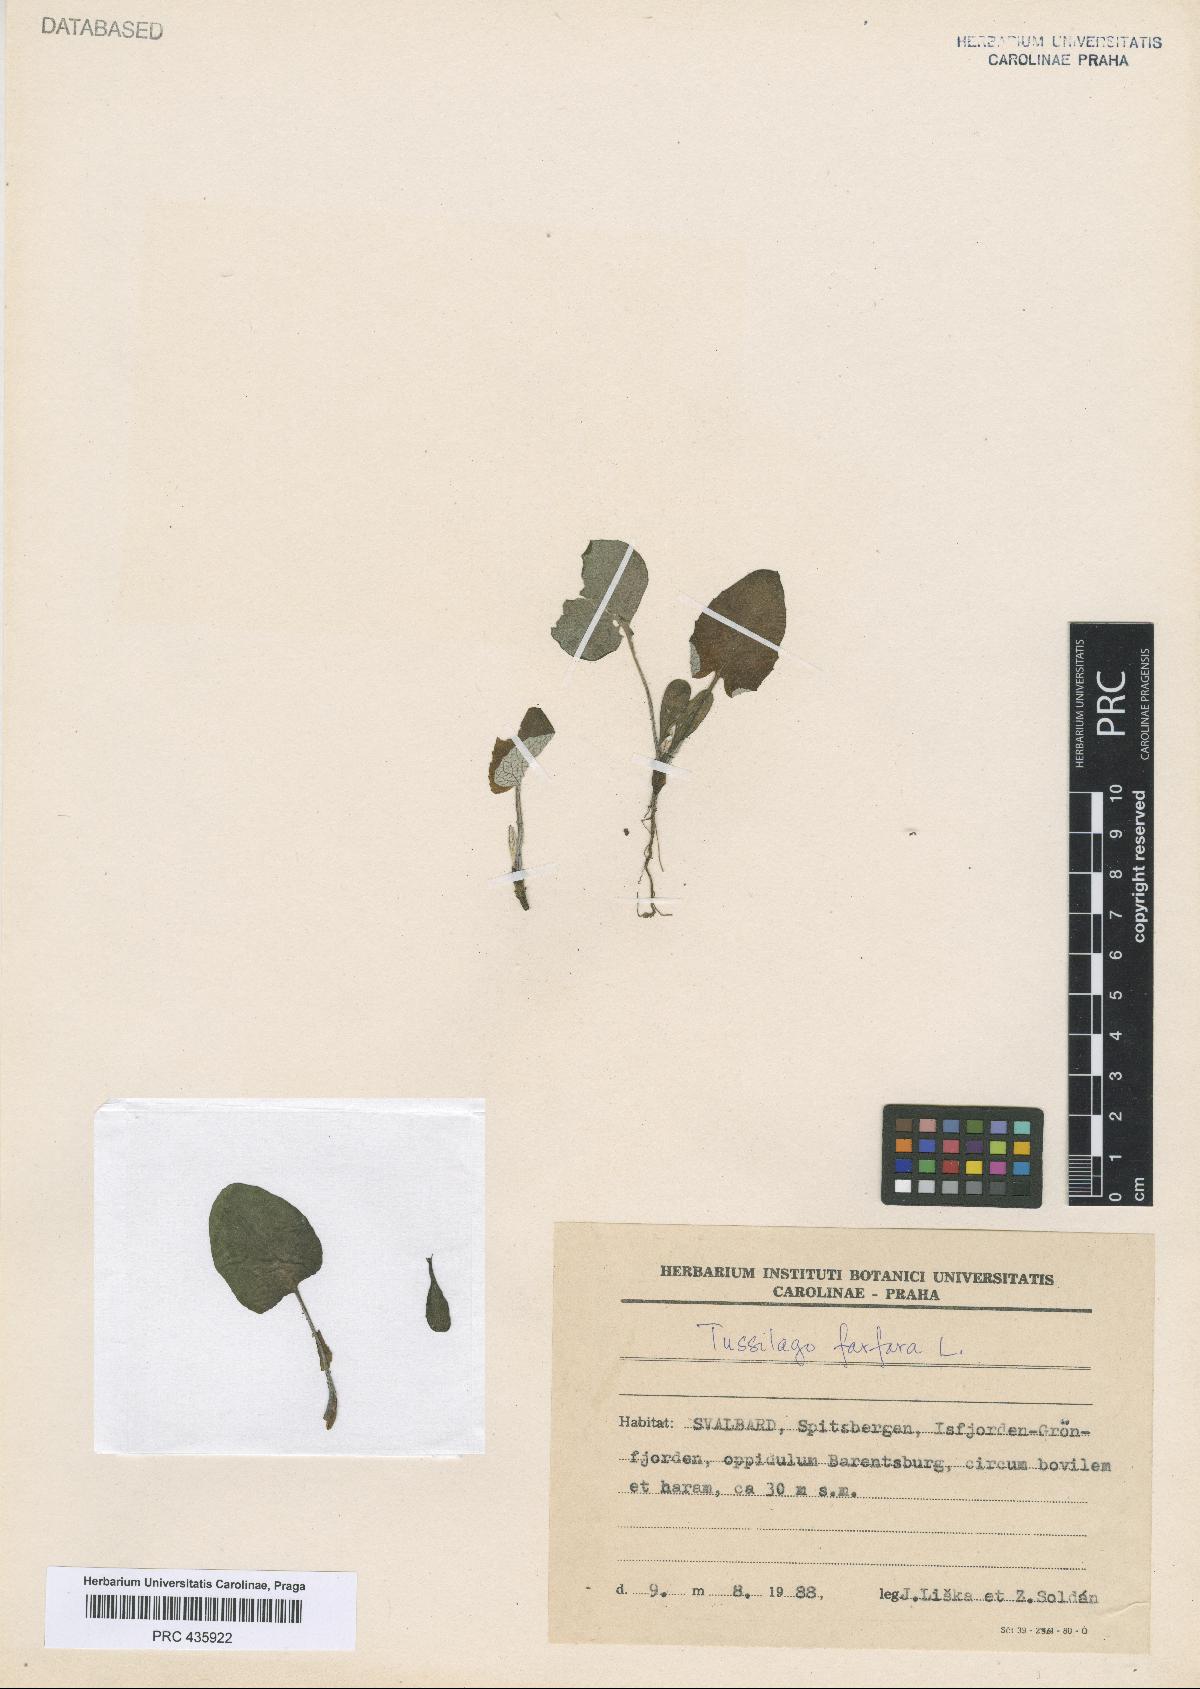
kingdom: Plantae
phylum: Tracheophyta
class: Magnoliopsida
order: Asterales
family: Asteraceae
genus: Tussilago
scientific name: Tussilago farfara
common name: Coltsfoot
